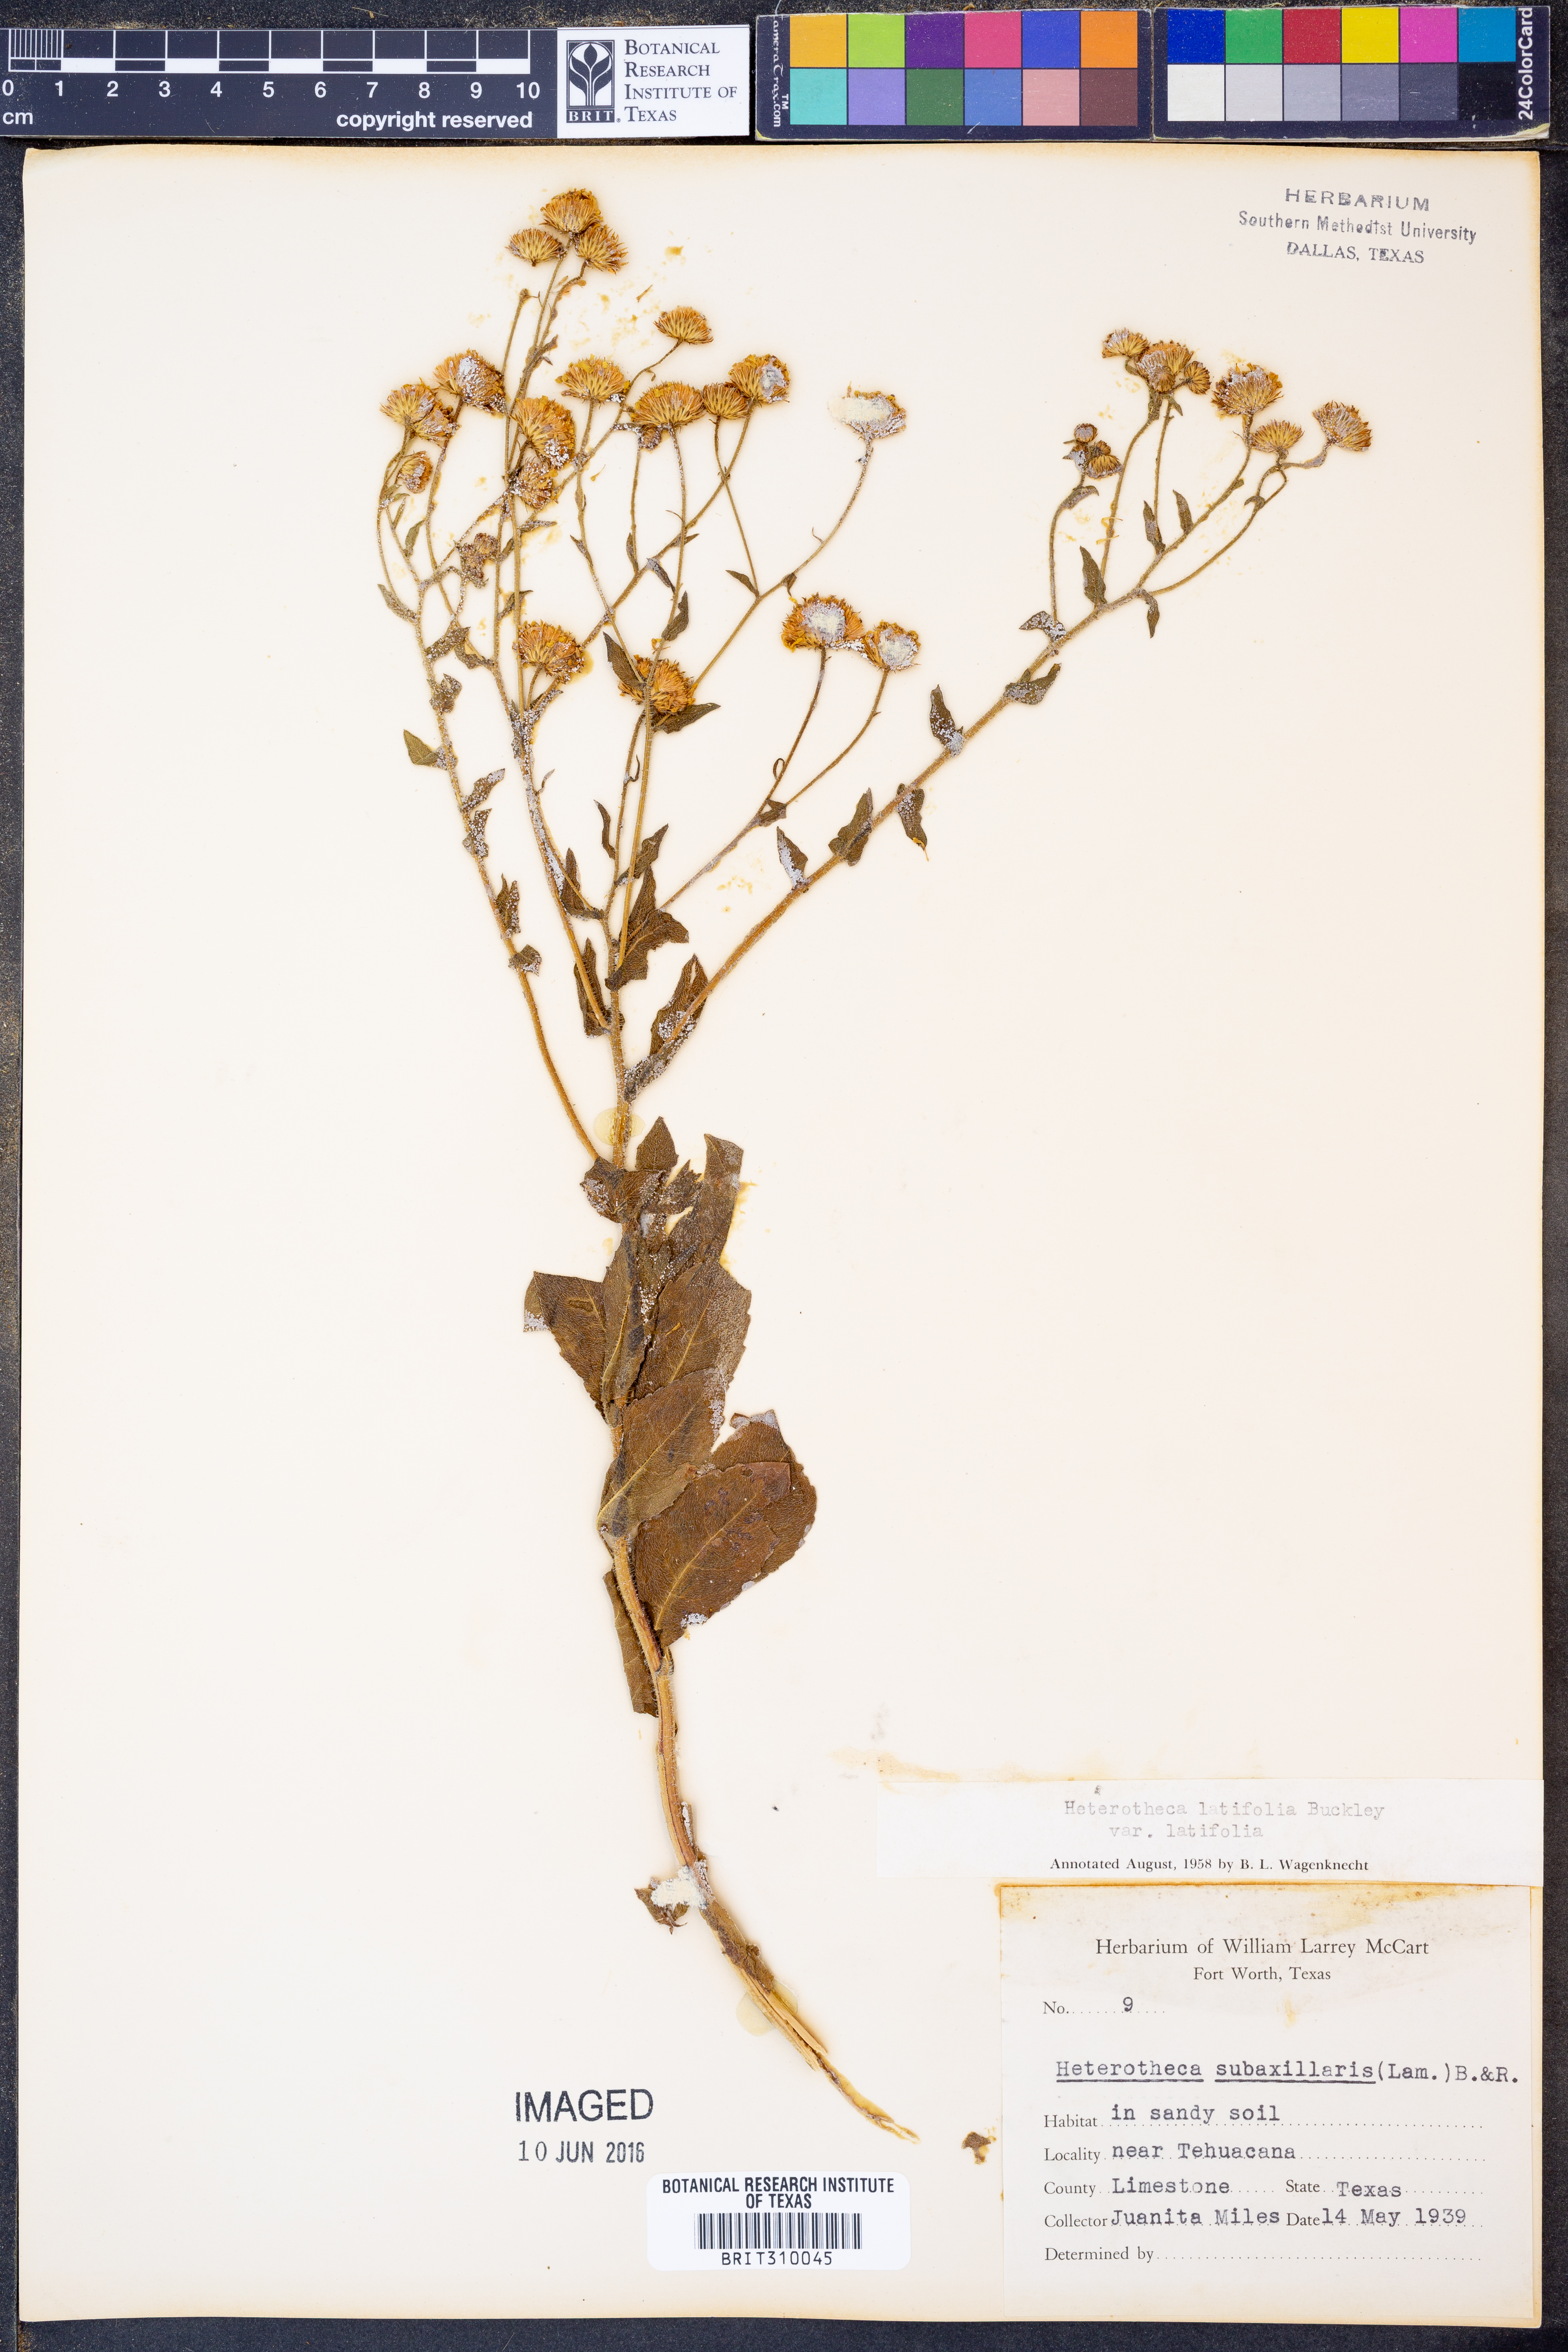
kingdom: Plantae
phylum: Tracheophyta
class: Magnoliopsida
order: Asterales
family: Asteraceae
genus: Heterotheca
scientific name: Heterotheca subaxillaris
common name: Camphorweed
